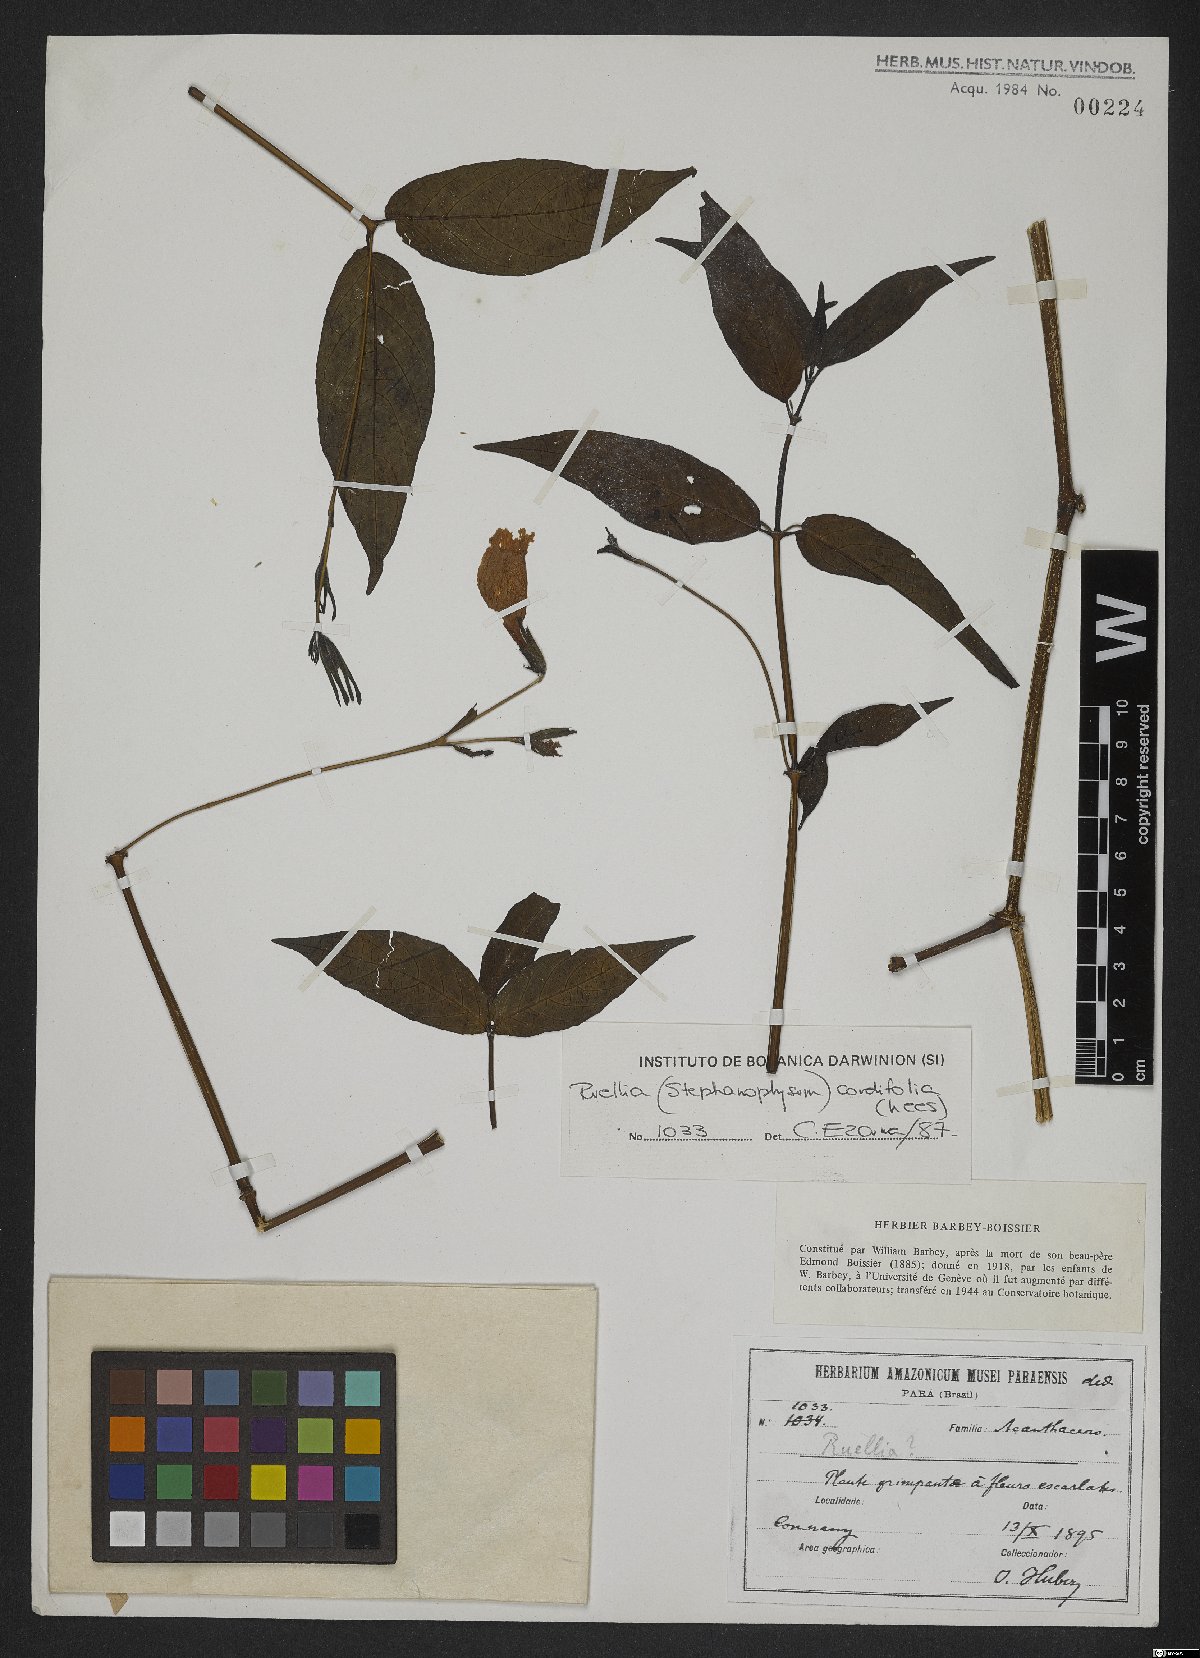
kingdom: Plantae
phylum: Tracheophyta
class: Magnoliopsida
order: Lamiales
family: Acanthaceae
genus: Ruellia
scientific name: Ruellia inflata
